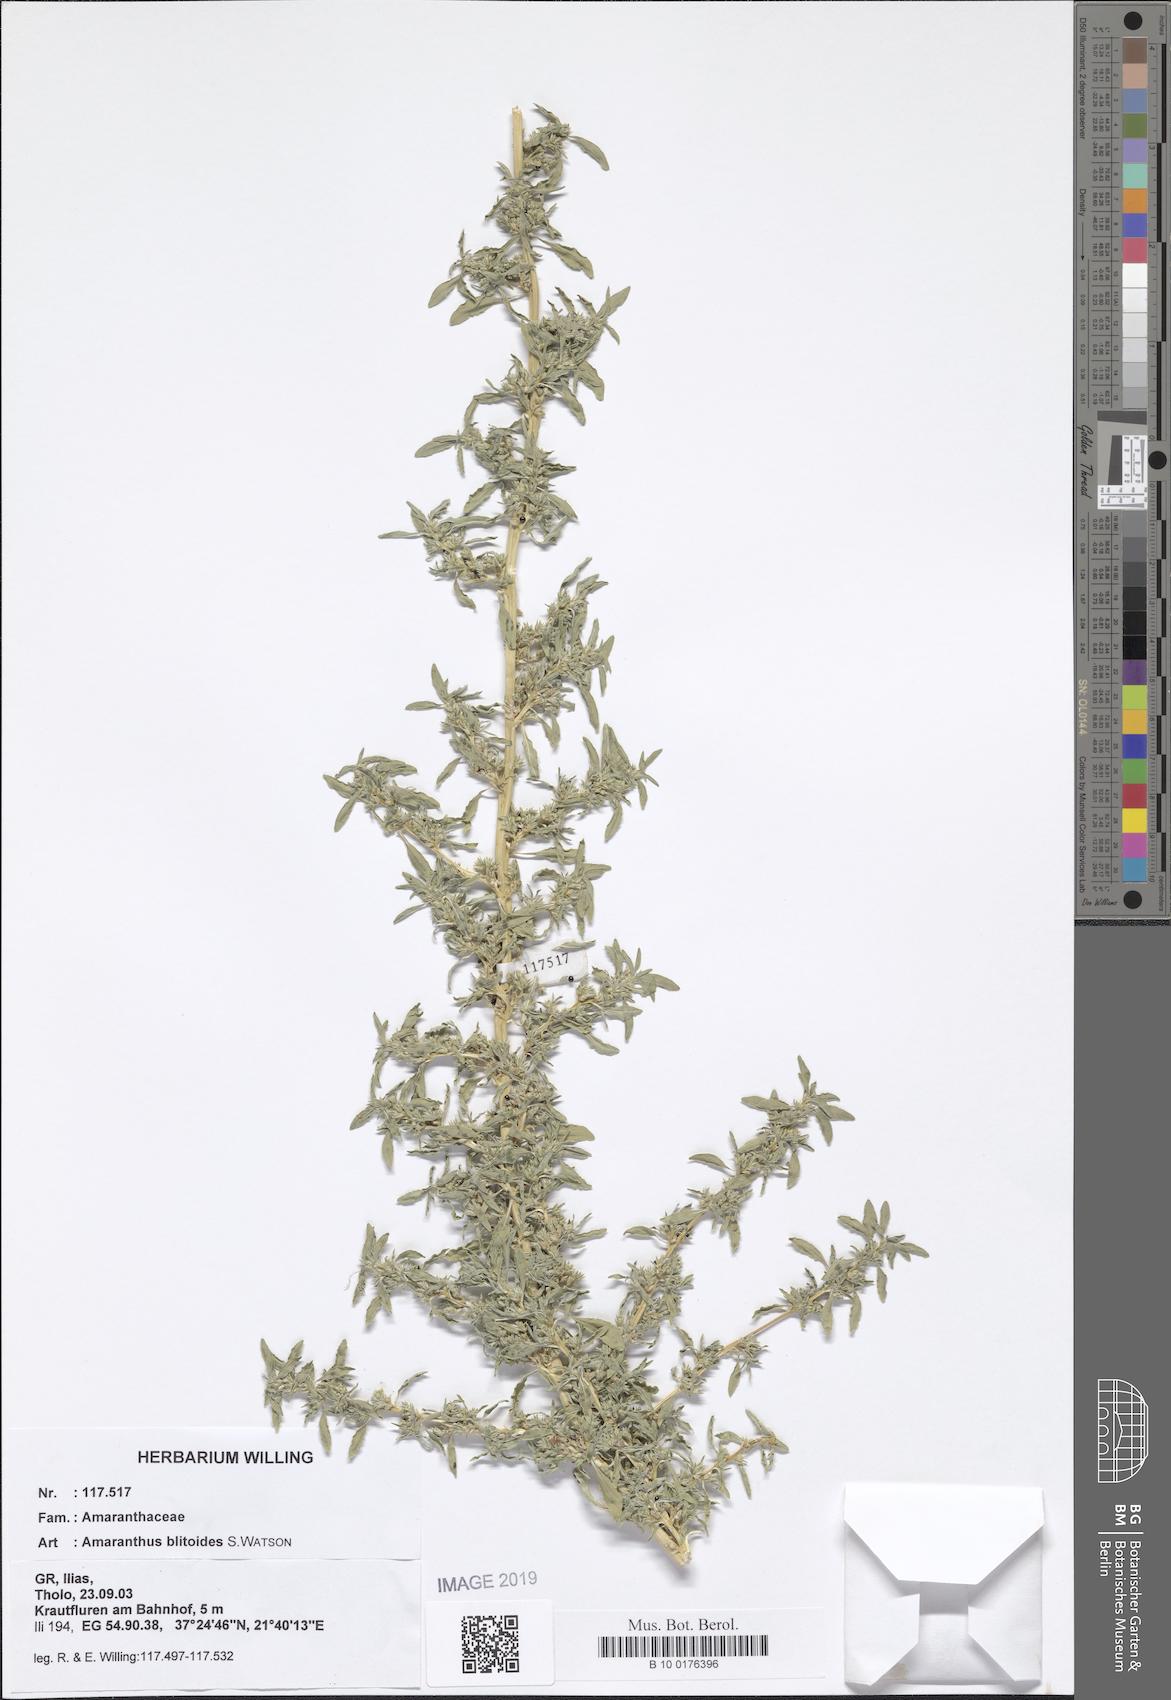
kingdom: Plantae
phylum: Tracheophyta
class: Magnoliopsida
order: Caryophyllales
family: Amaranthaceae
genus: Amaranthus
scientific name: Amaranthus blitoides
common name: Prostrate pigweed
